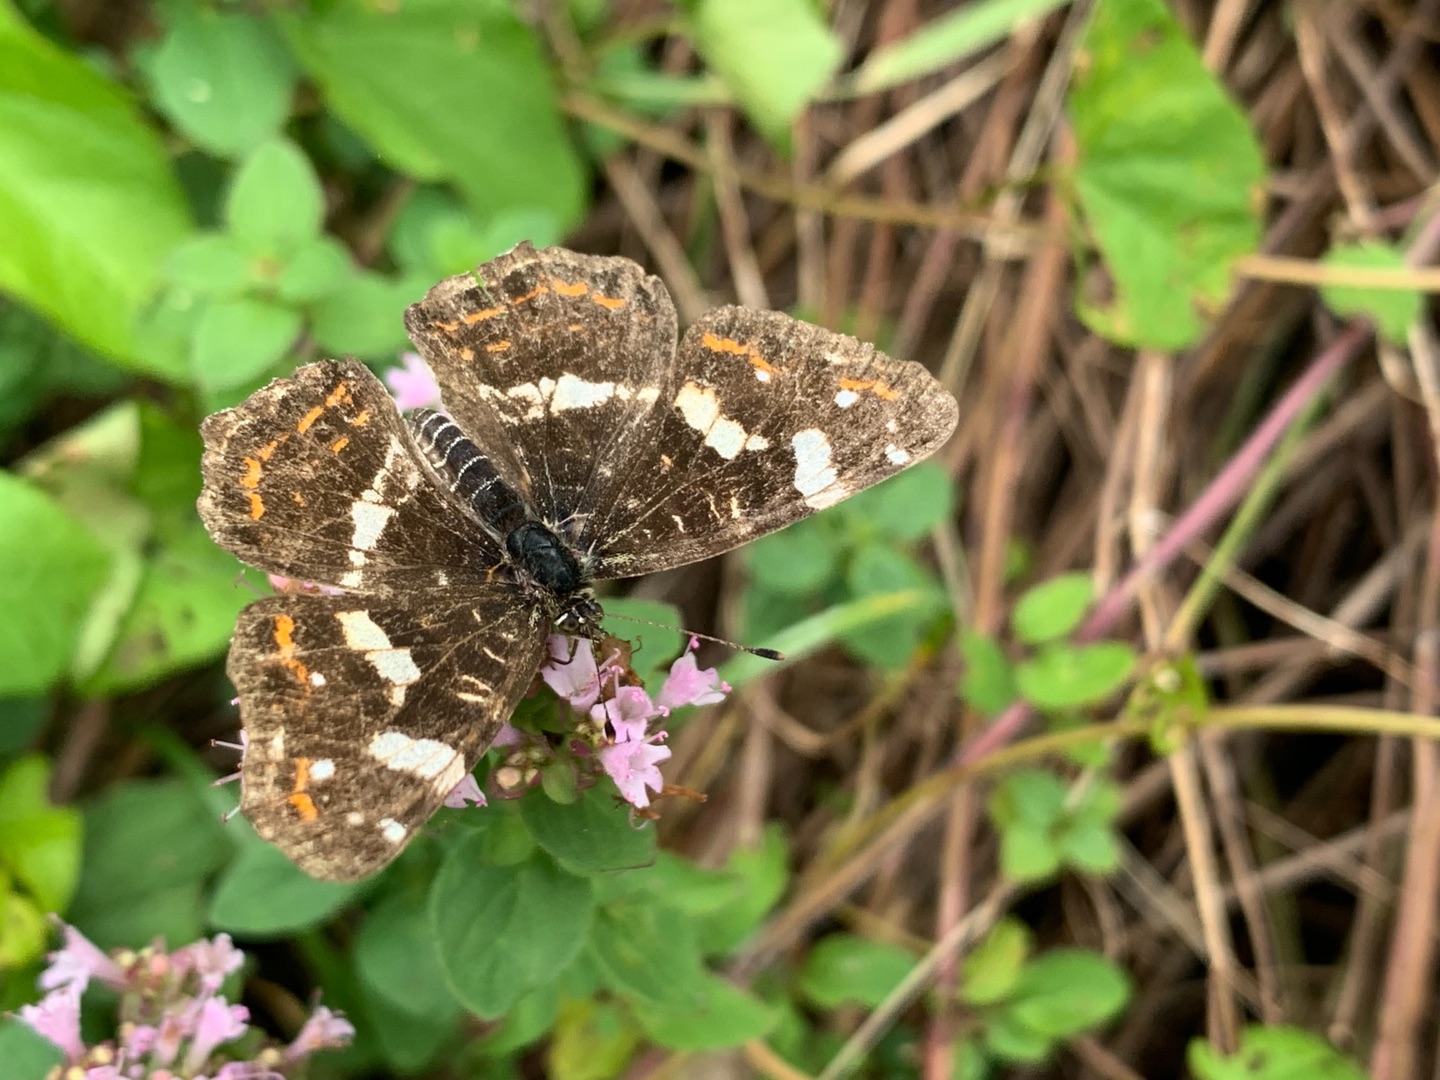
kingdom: Animalia
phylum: Arthropoda
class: Insecta
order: Lepidoptera
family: Nymphalidae
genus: Araschnia
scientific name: Araschnia levana
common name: Nældesommerfugl
